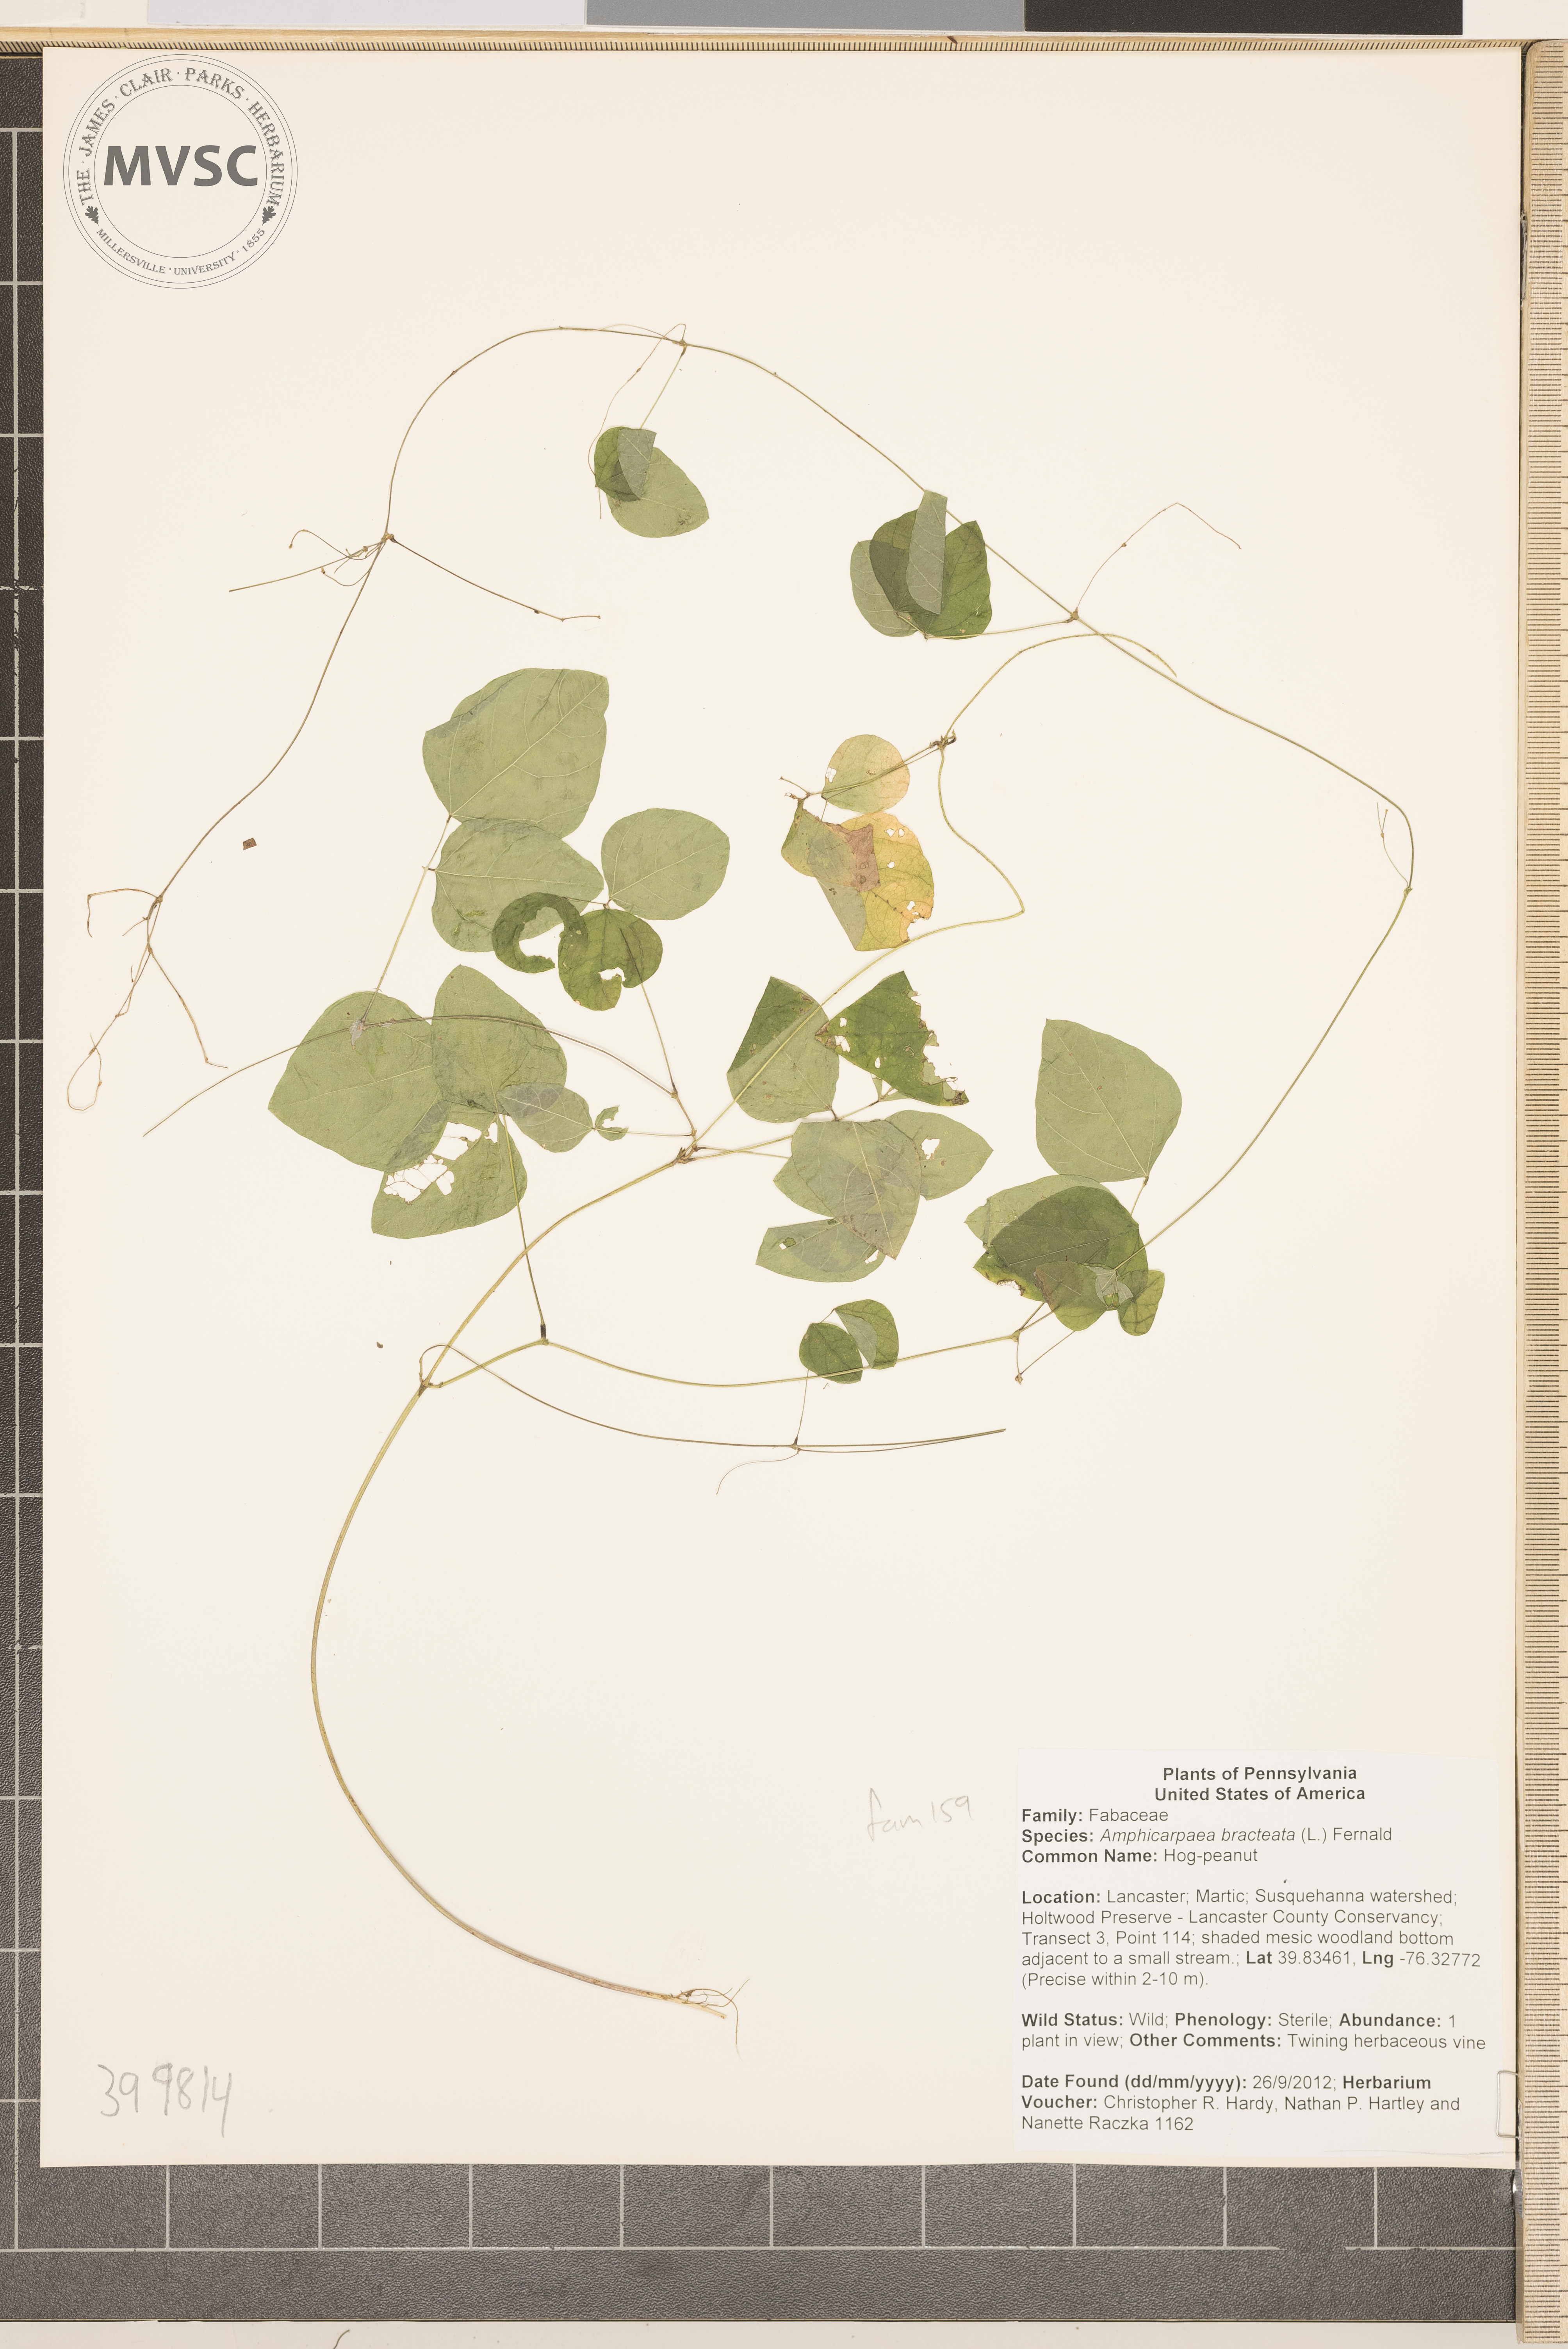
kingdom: Plantae
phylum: Tracheophyta
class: Magnoliopsida
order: Fabales
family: Fabaceae
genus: Amphicarpaea
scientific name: Amphicarpaea bracteata
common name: Hog-peanut
